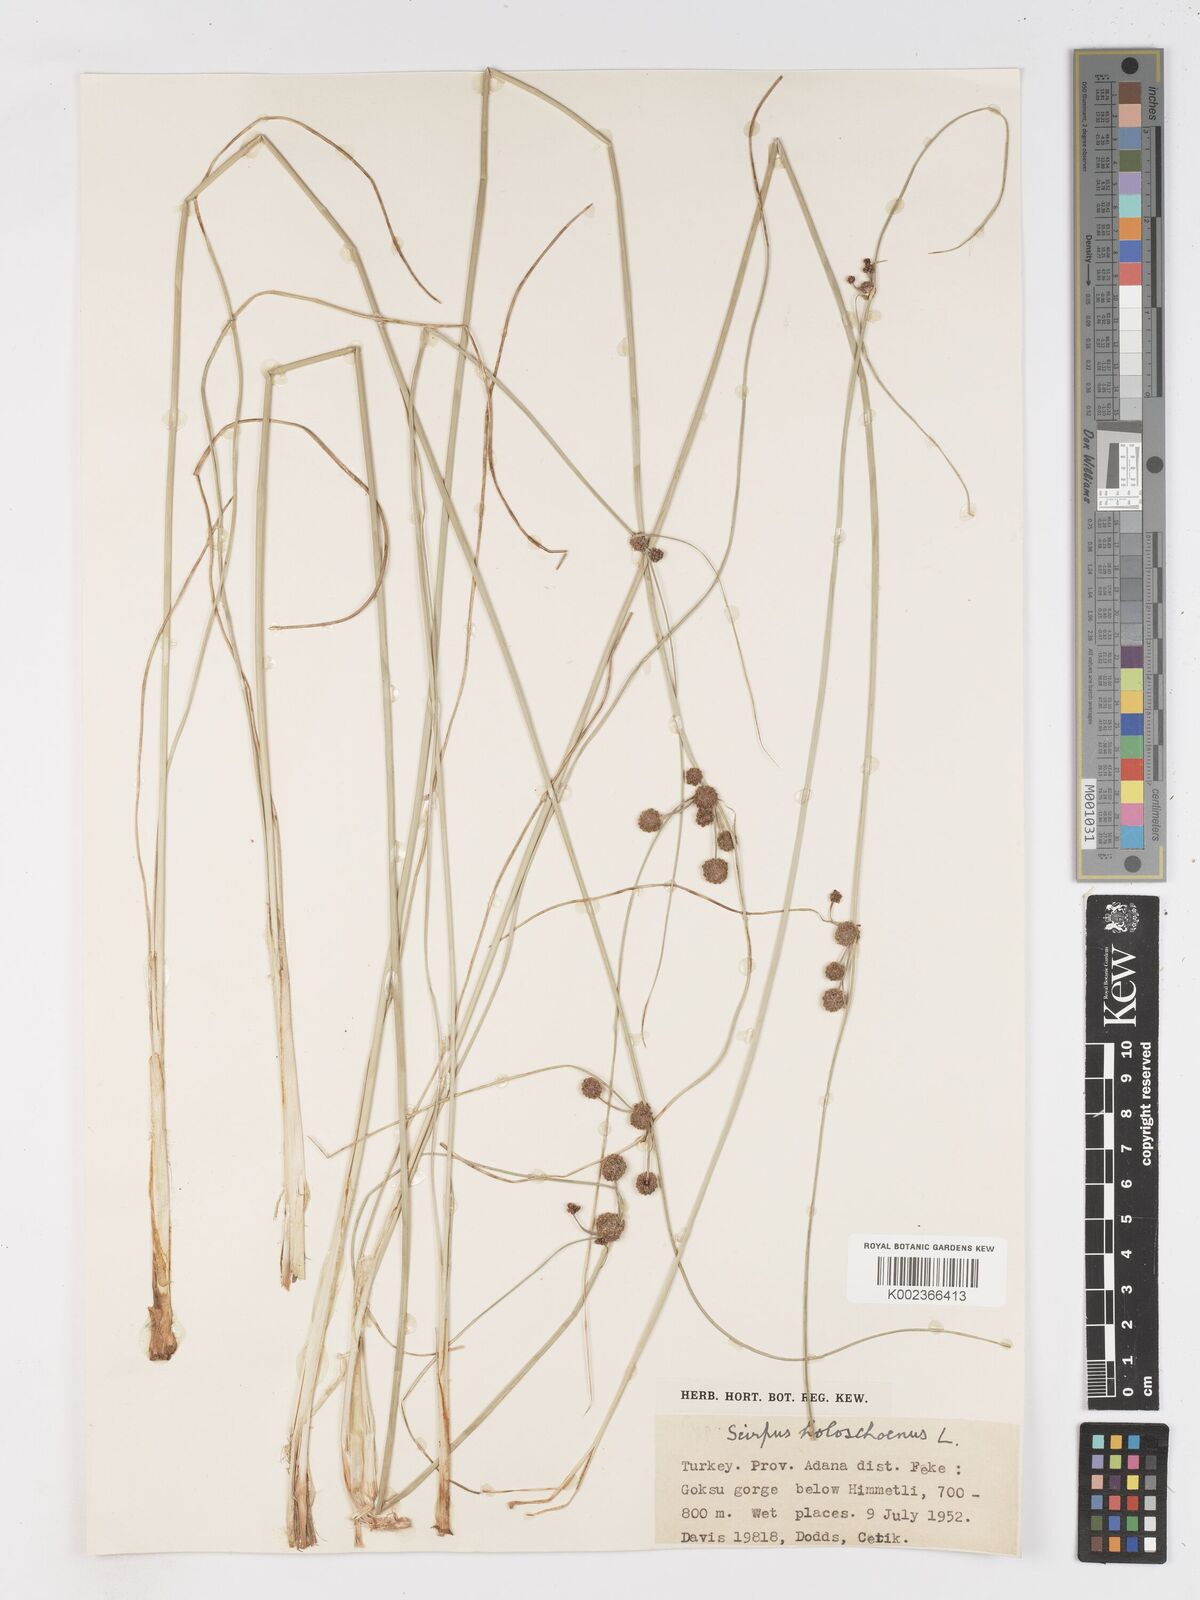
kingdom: Plantae
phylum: Tracheophyta
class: Liliopsida
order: Poales
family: Cyperaceae
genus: Scirpoides
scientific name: Scirpoides holoschoenus
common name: Round-headed club-rush
